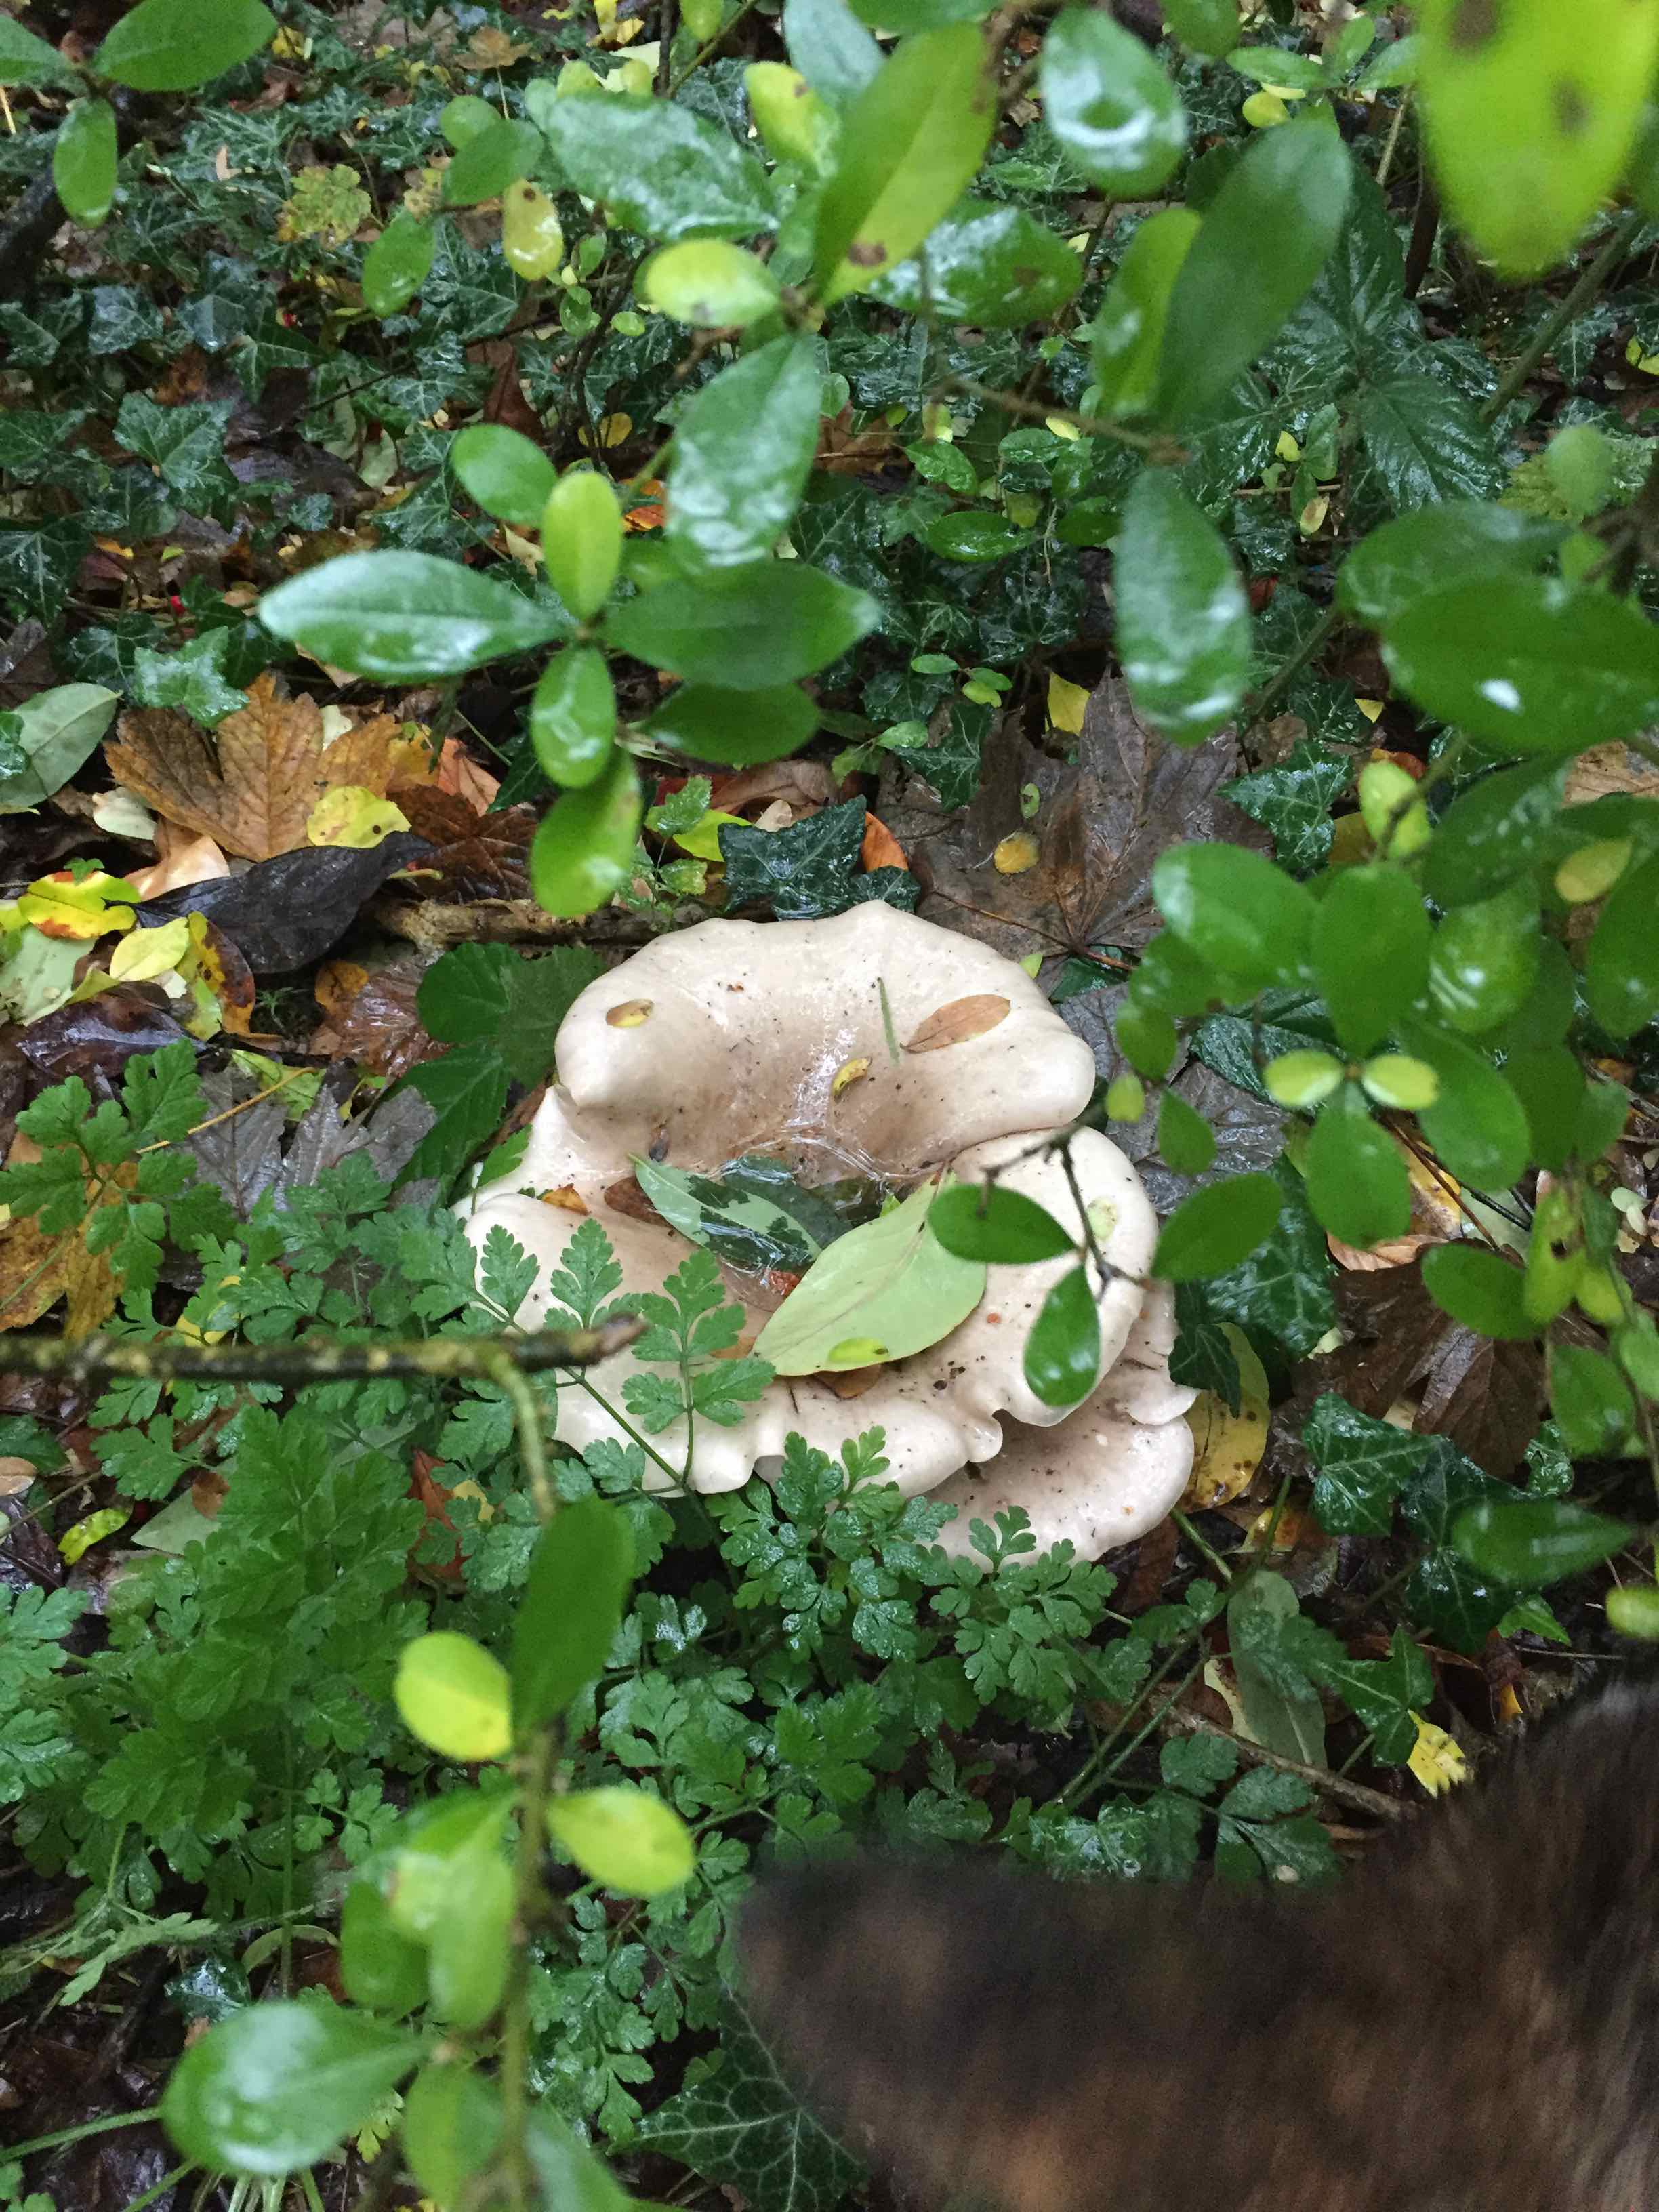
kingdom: Fungi
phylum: Basidiomycota
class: Agaricomycetes
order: Agaricales
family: Tricholomataceae
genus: Clitocybe
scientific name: Clitocybe nebularis
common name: tåge-tragthat
